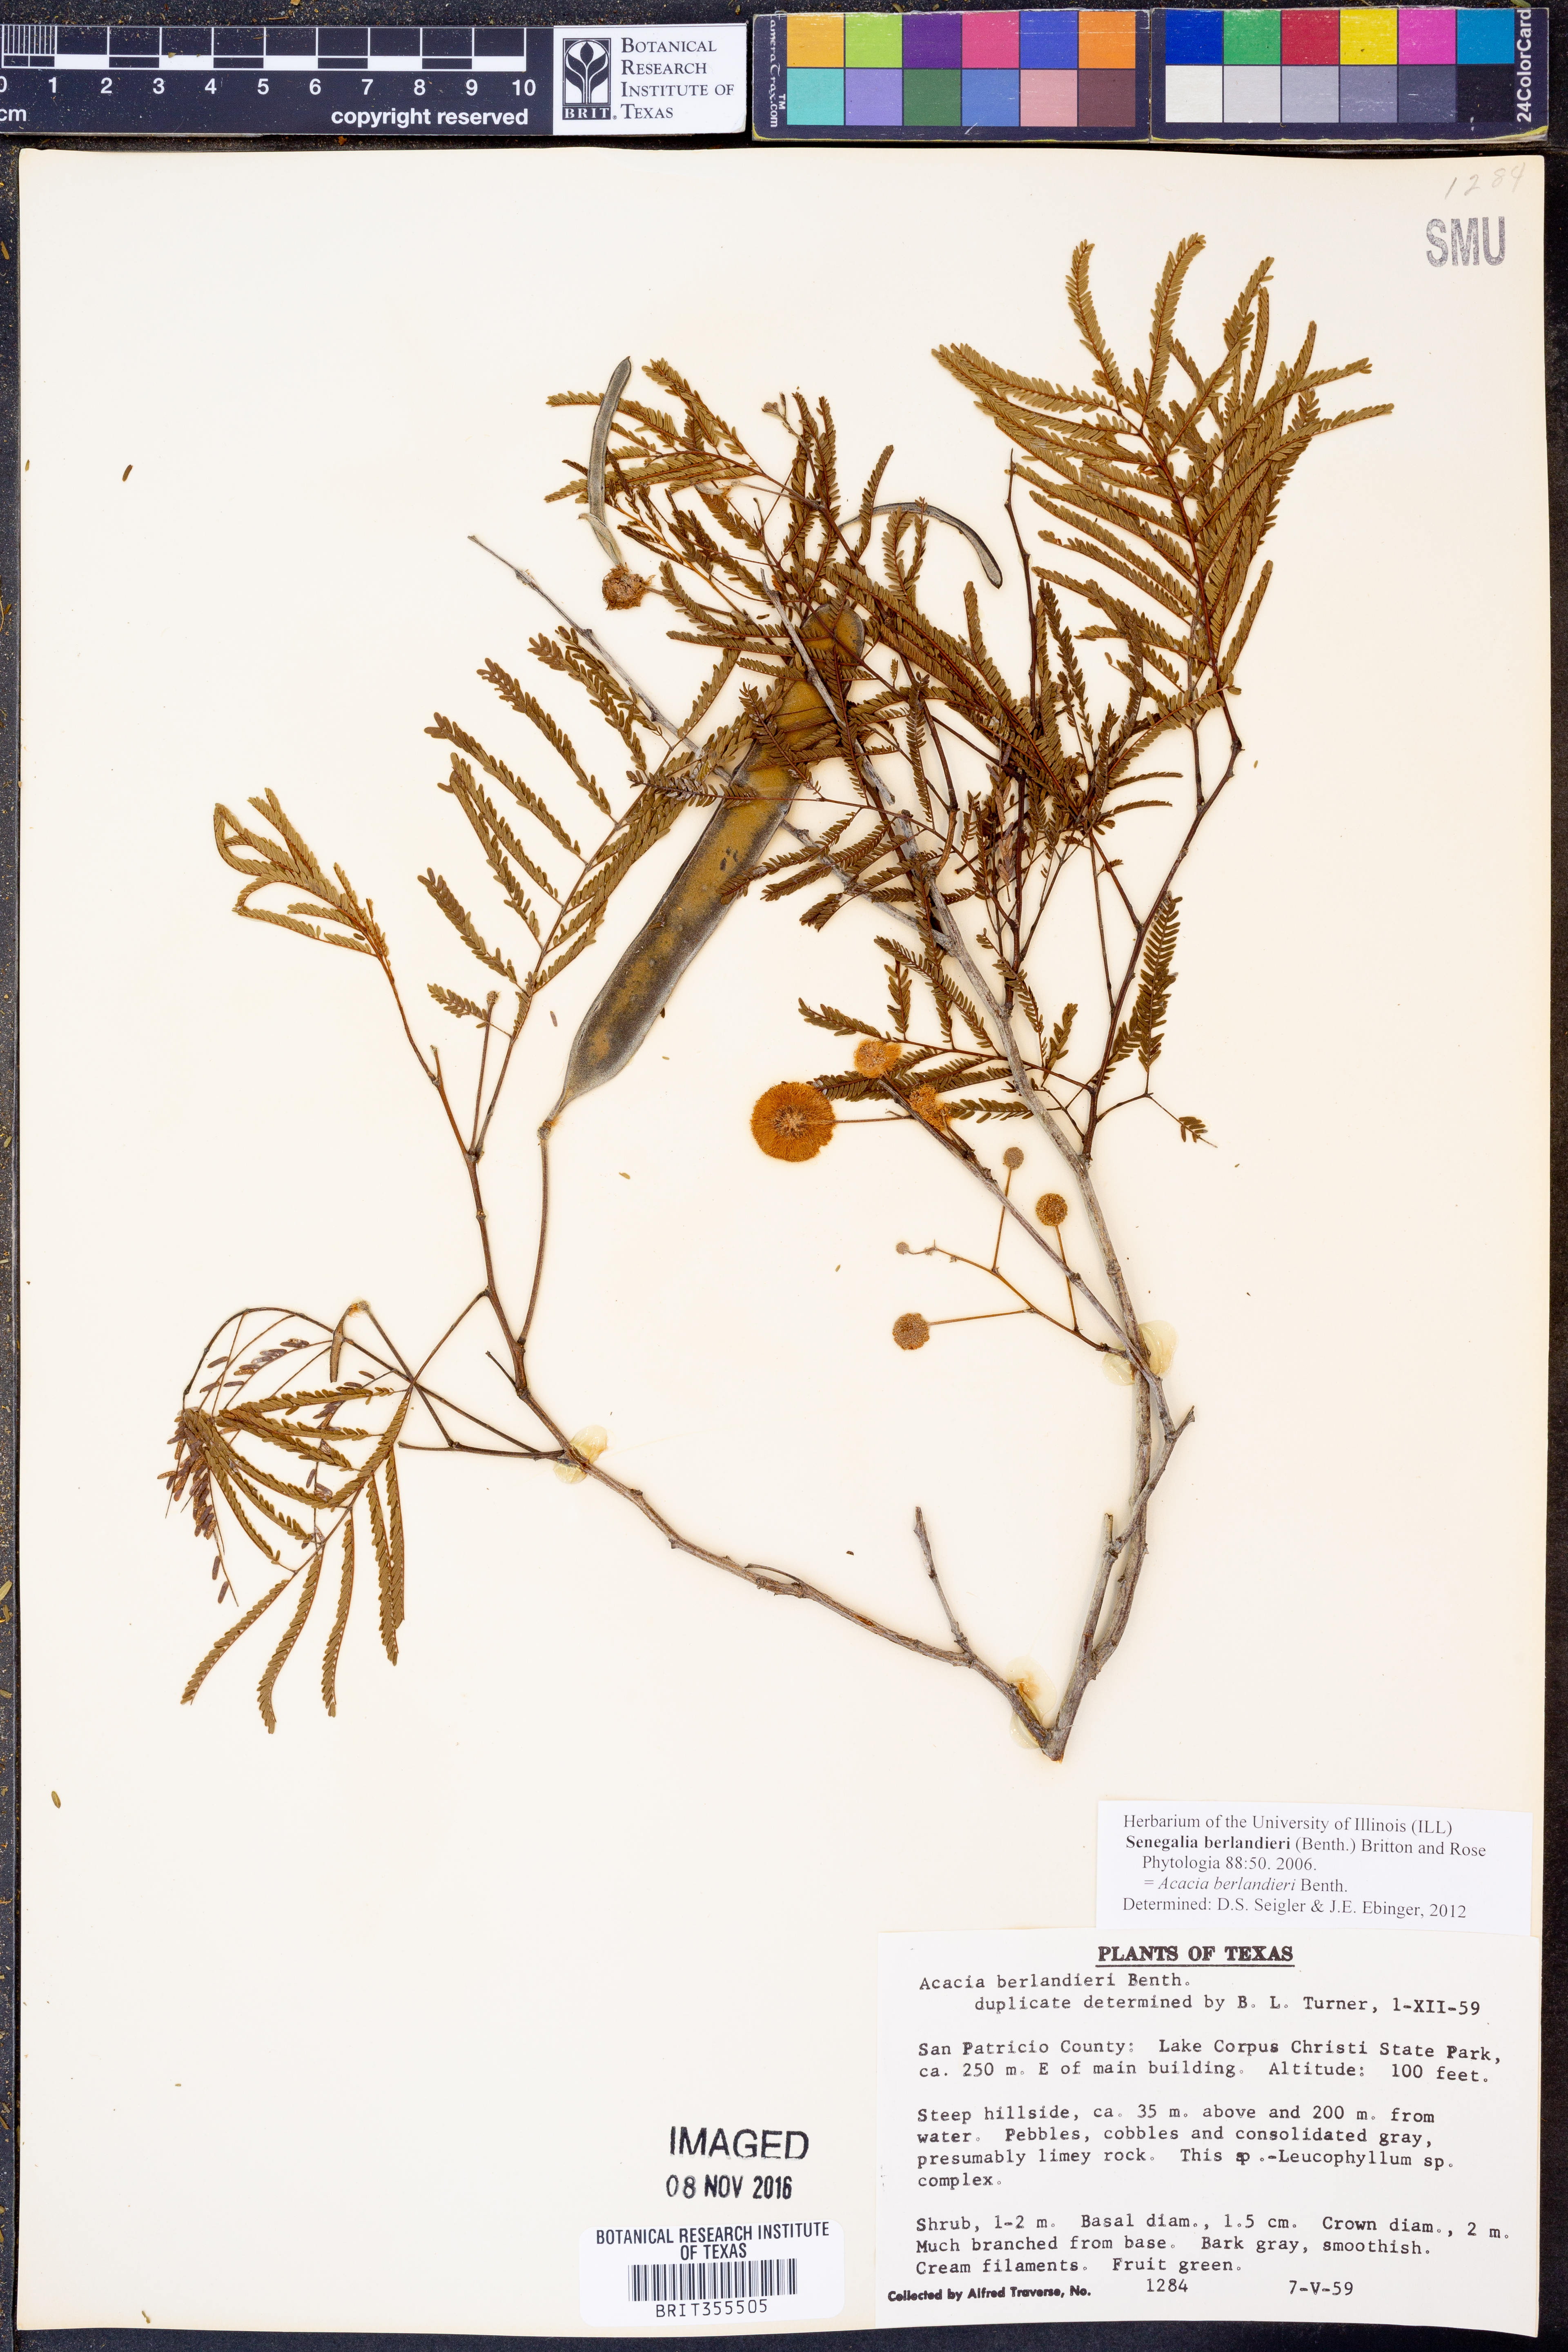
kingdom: Plantae
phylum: Tracheophyta
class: Magnoliopsida
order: Fabales
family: Fabaceae
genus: Senegalia
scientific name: Senegalia berlandieri
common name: Berlandier acacia
